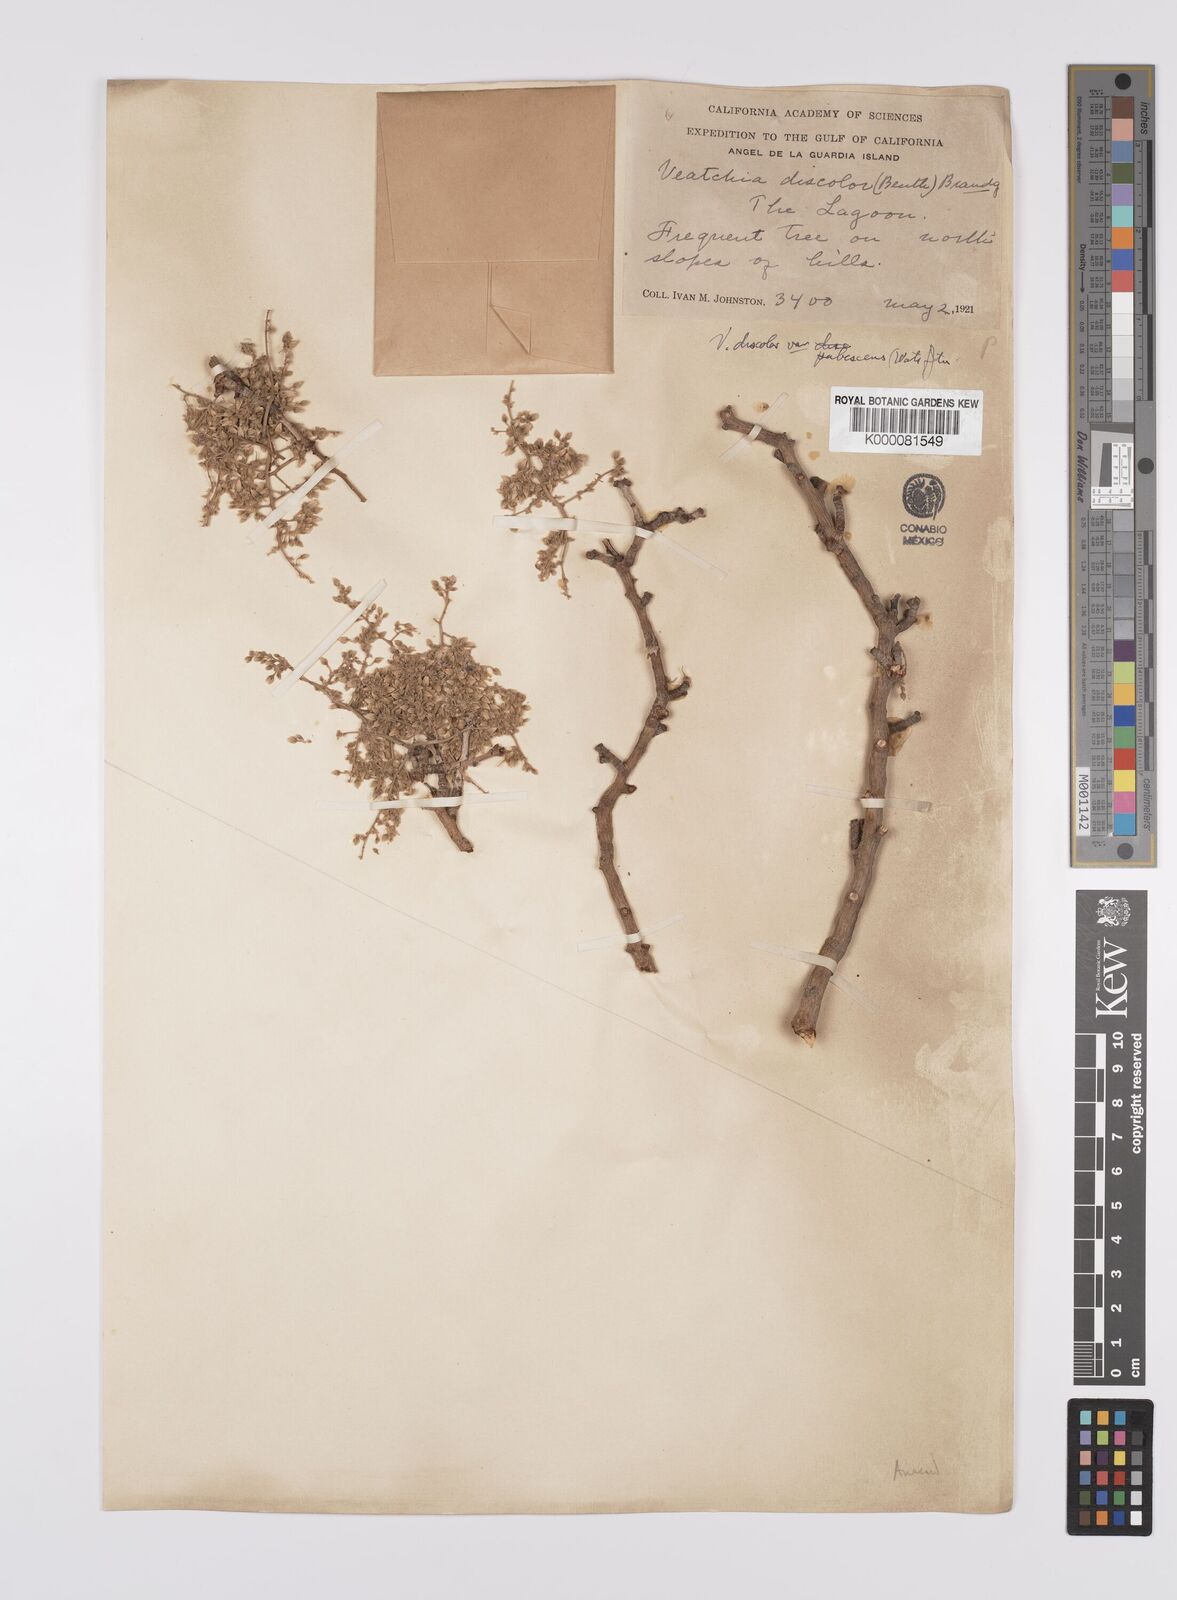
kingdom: Plantae
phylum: Tracheophyta
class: Magnoliopsida
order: Sapindales
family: Anacardiaceae
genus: Pachycormus
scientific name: Pachycormus
